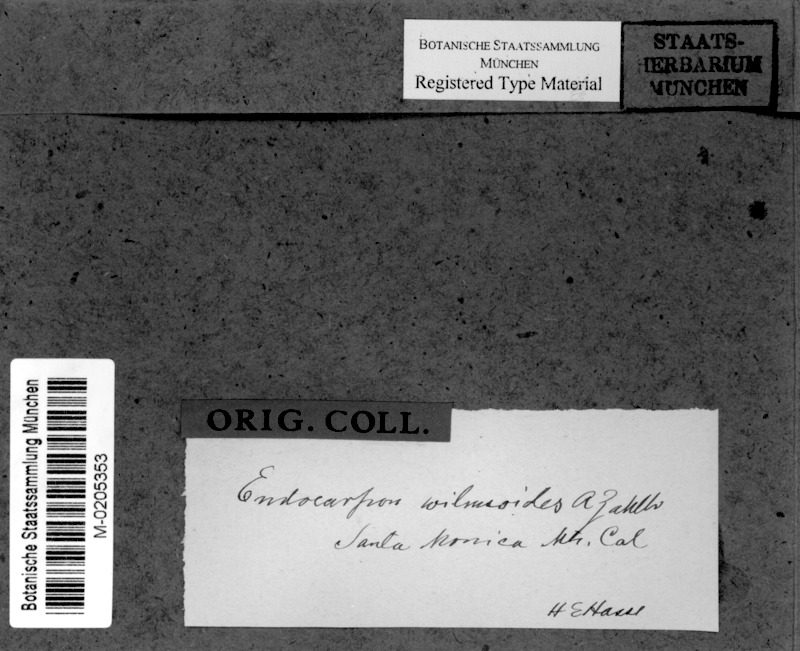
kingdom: Fungi
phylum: Ascomycota
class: Eurotiomycetes
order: Verrucariales
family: Verrucariaceae
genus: Staurothele
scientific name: Staurothele clopima
